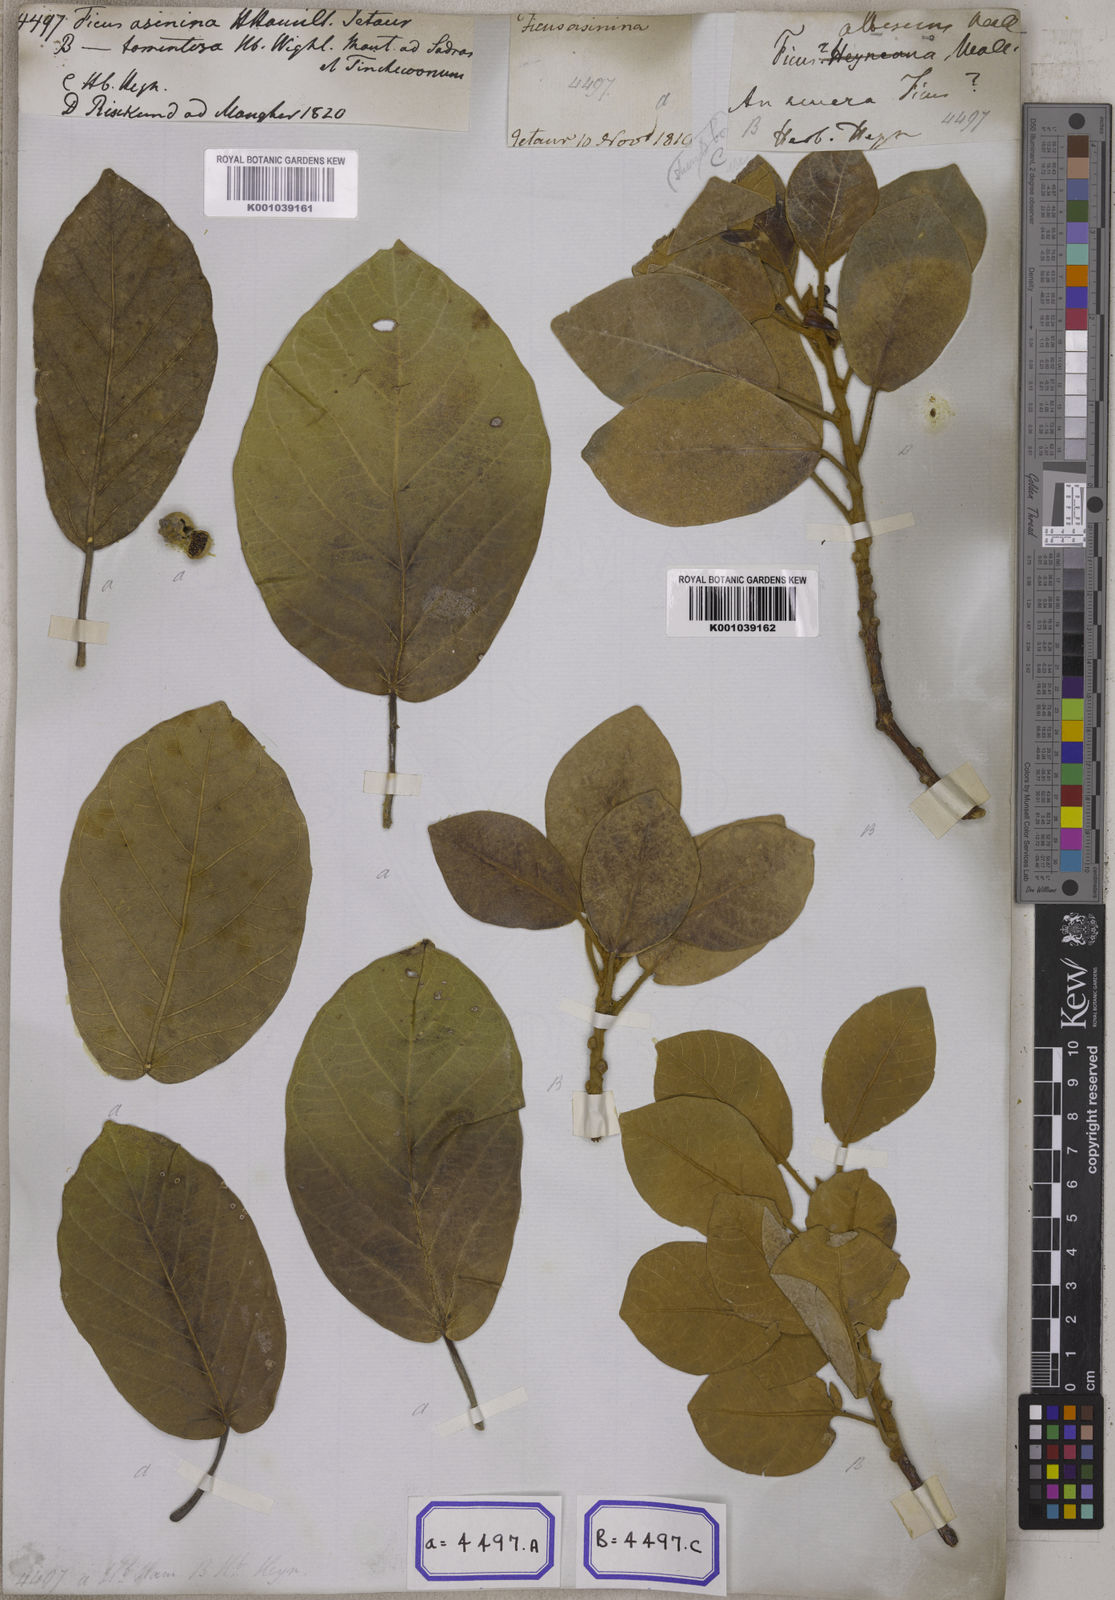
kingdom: Plantae
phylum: Tracheophyta
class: Magnoliopsida
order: Rosales
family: Moraceae
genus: Ficus
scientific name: Ficus mollis
